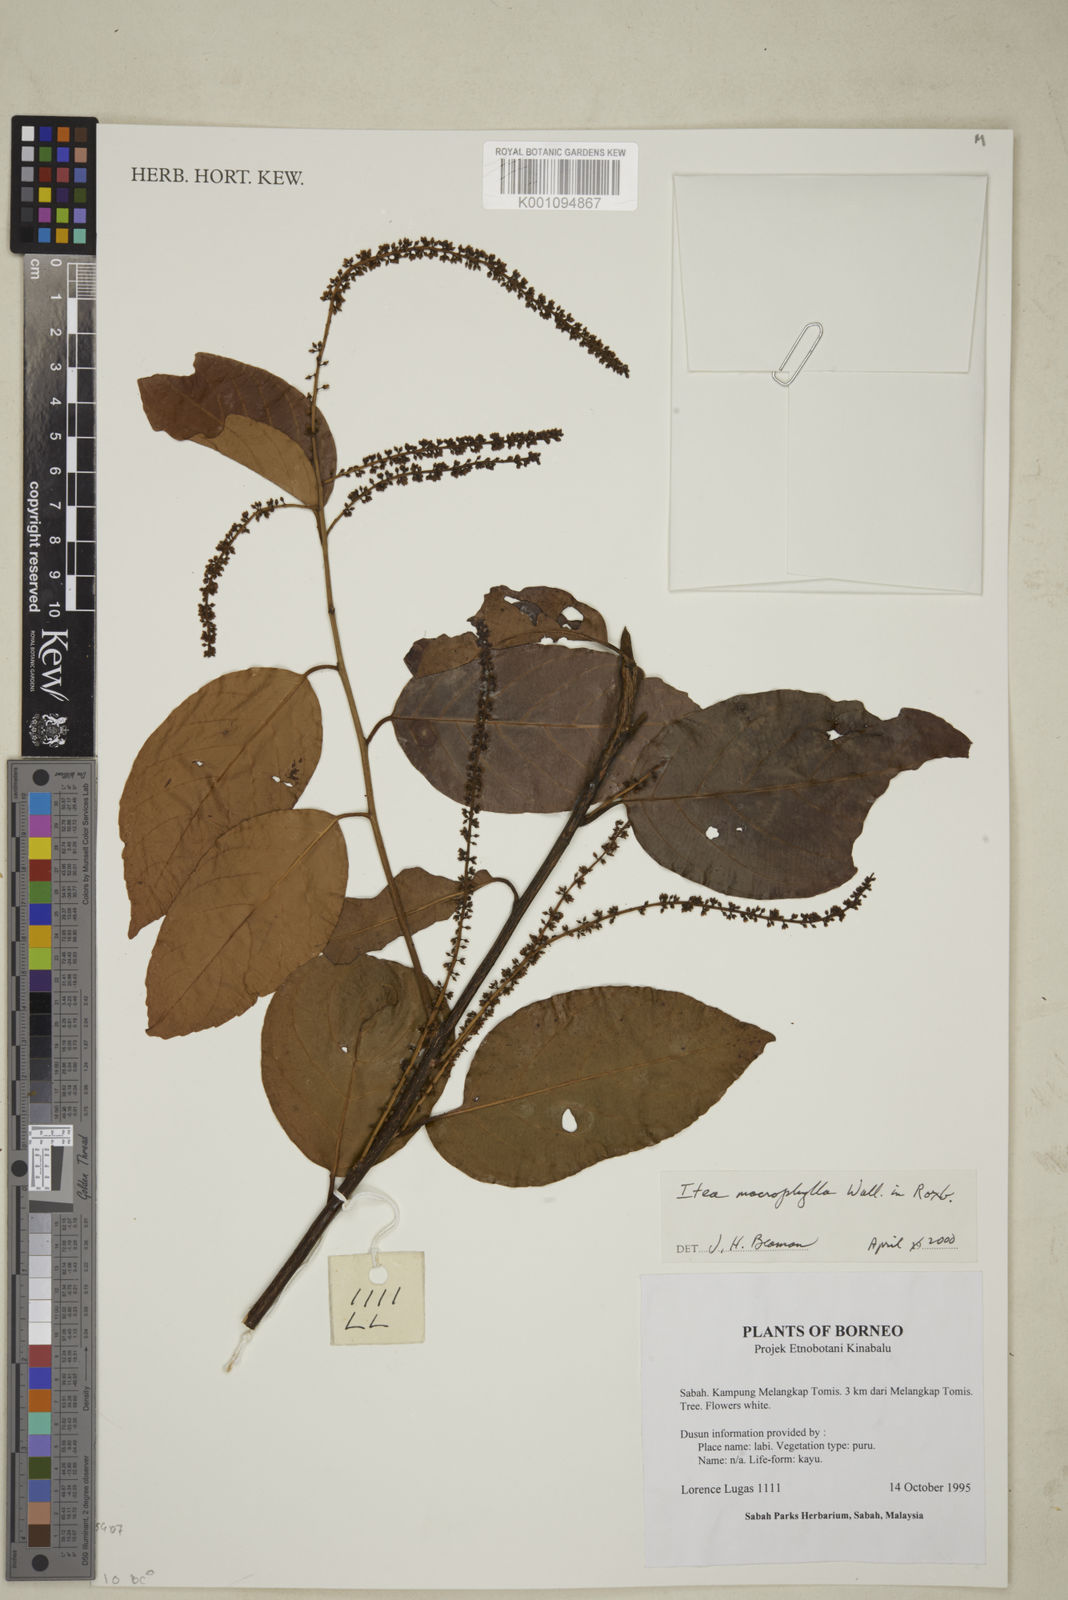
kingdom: Plantae
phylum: Tracheophyta
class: Magnoliopsida
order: Saxifragales
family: Iteaceae
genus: Itea
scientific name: Itea macrophylla
